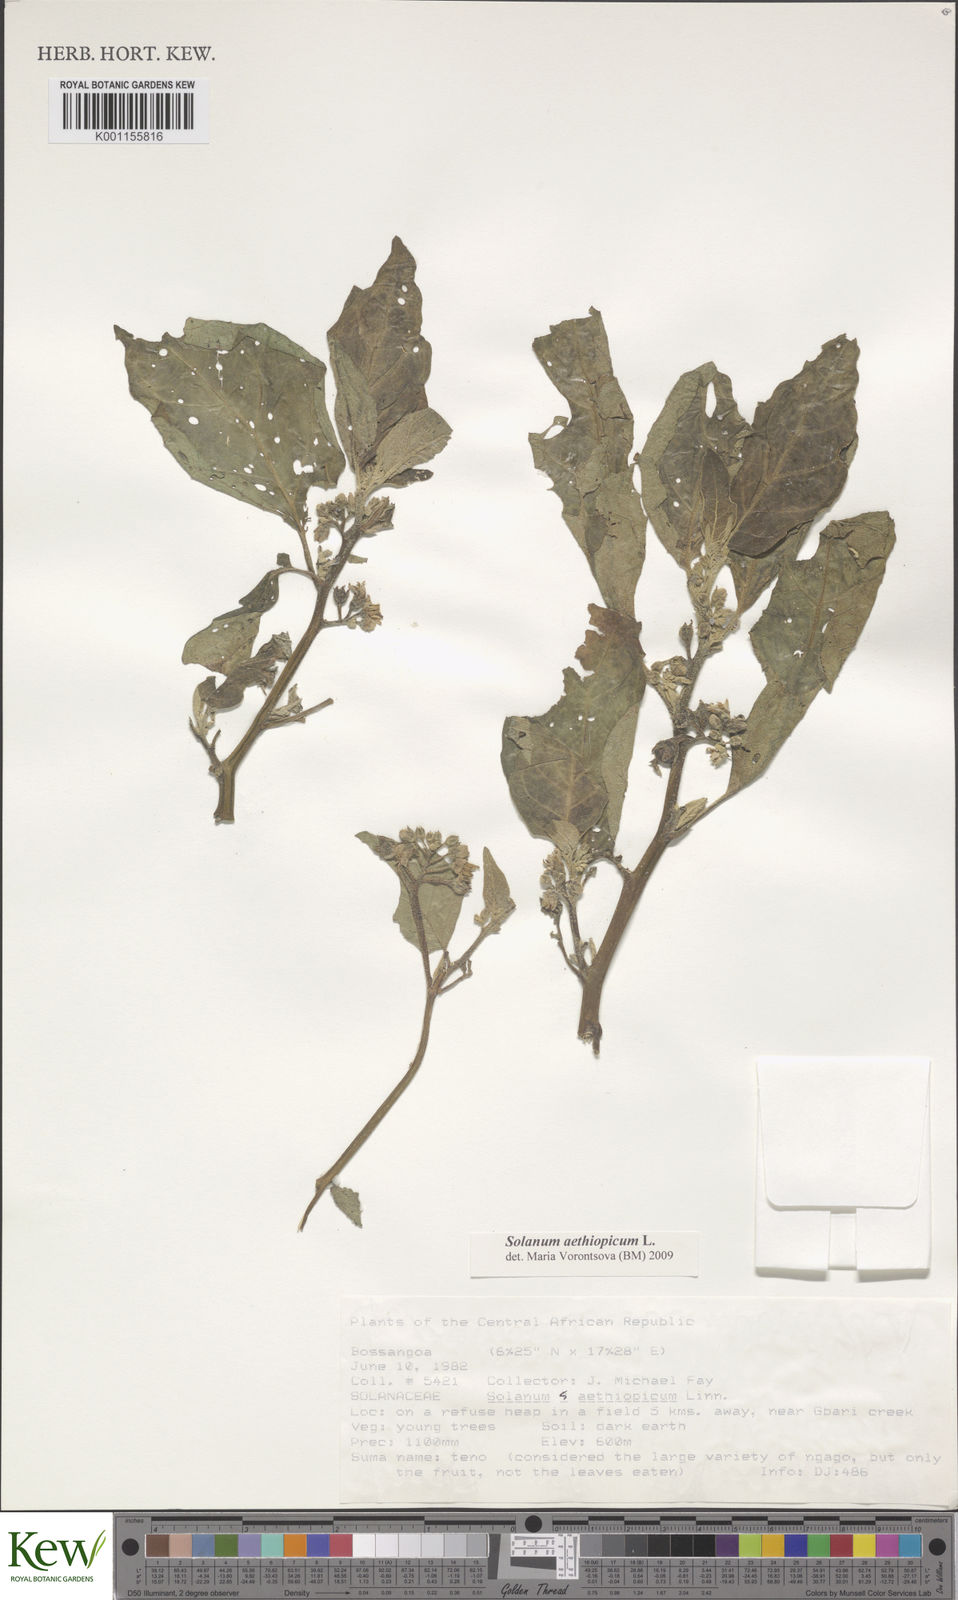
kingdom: Plantae
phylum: Tracheophyta
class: Magnoliopsida
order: Solanales
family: Solanaceae
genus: Solanum
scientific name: Solanum aethiopicum
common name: Gilo
